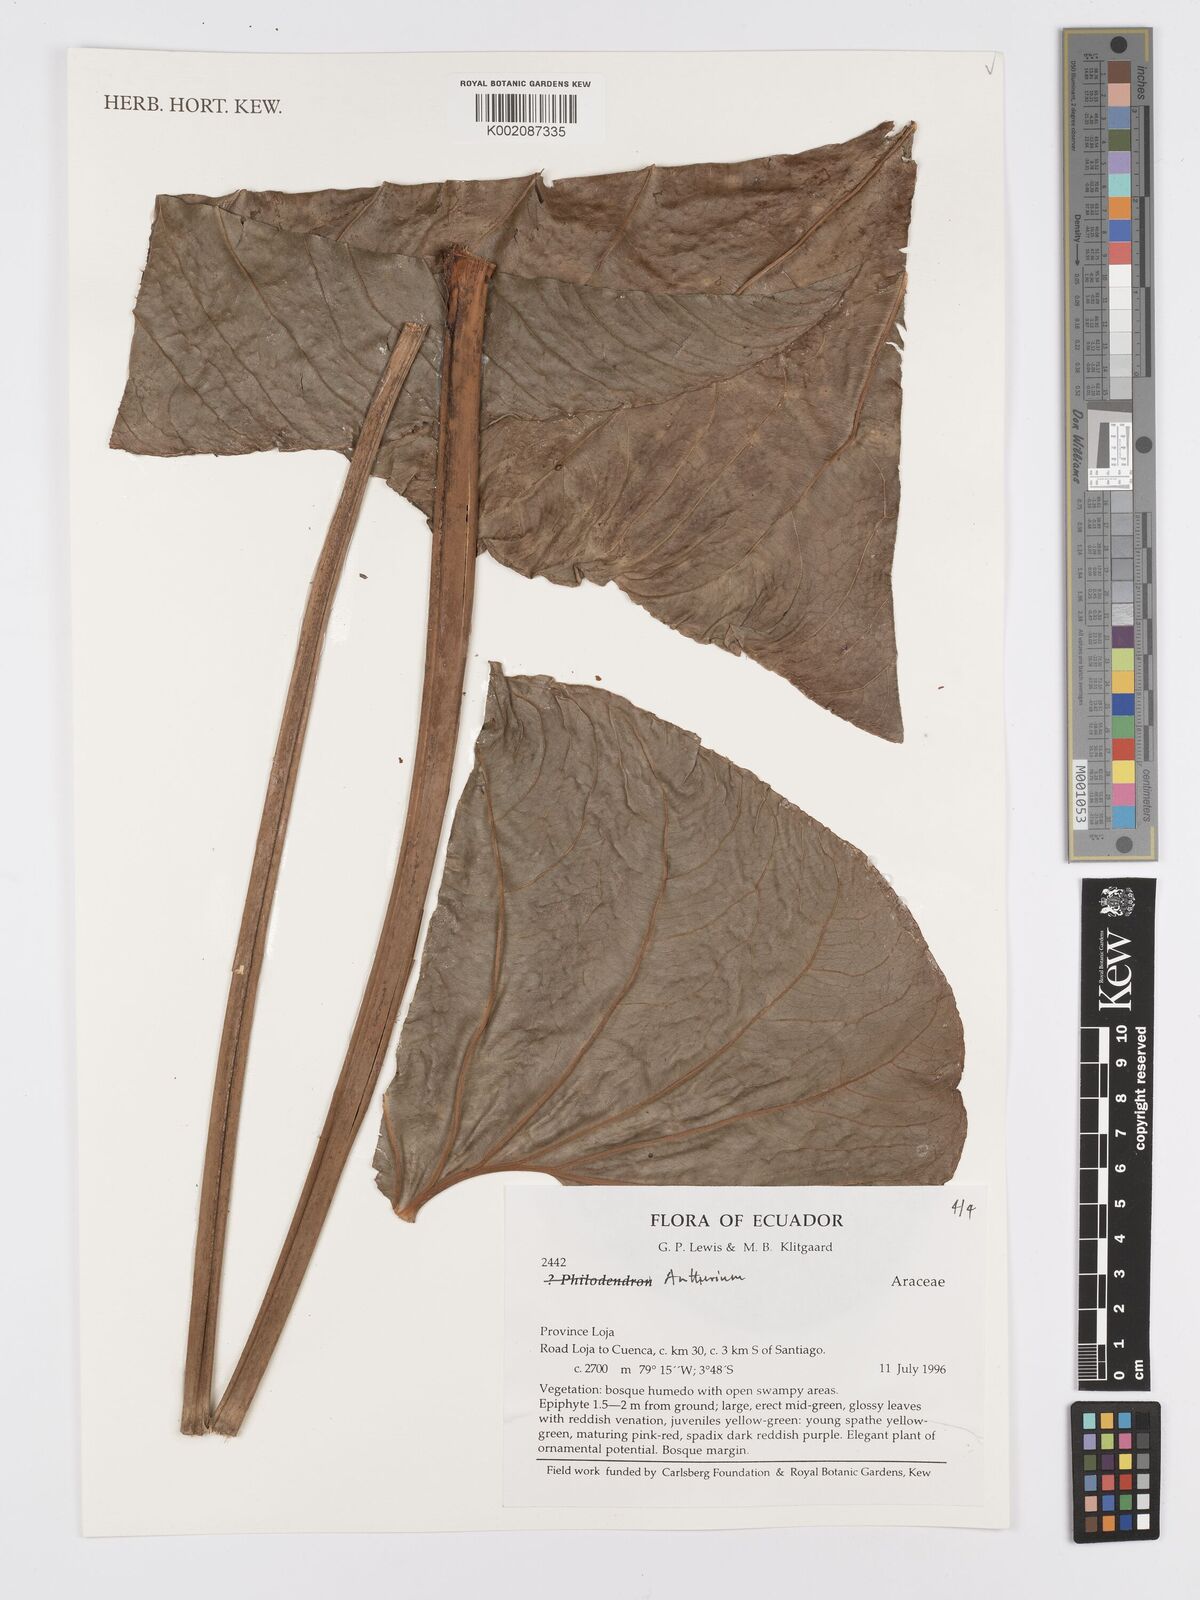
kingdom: Plantae
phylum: Tracheophyta
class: Liliopsida
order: Alismatales
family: Araceae
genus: Anthurium
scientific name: Anthurium
